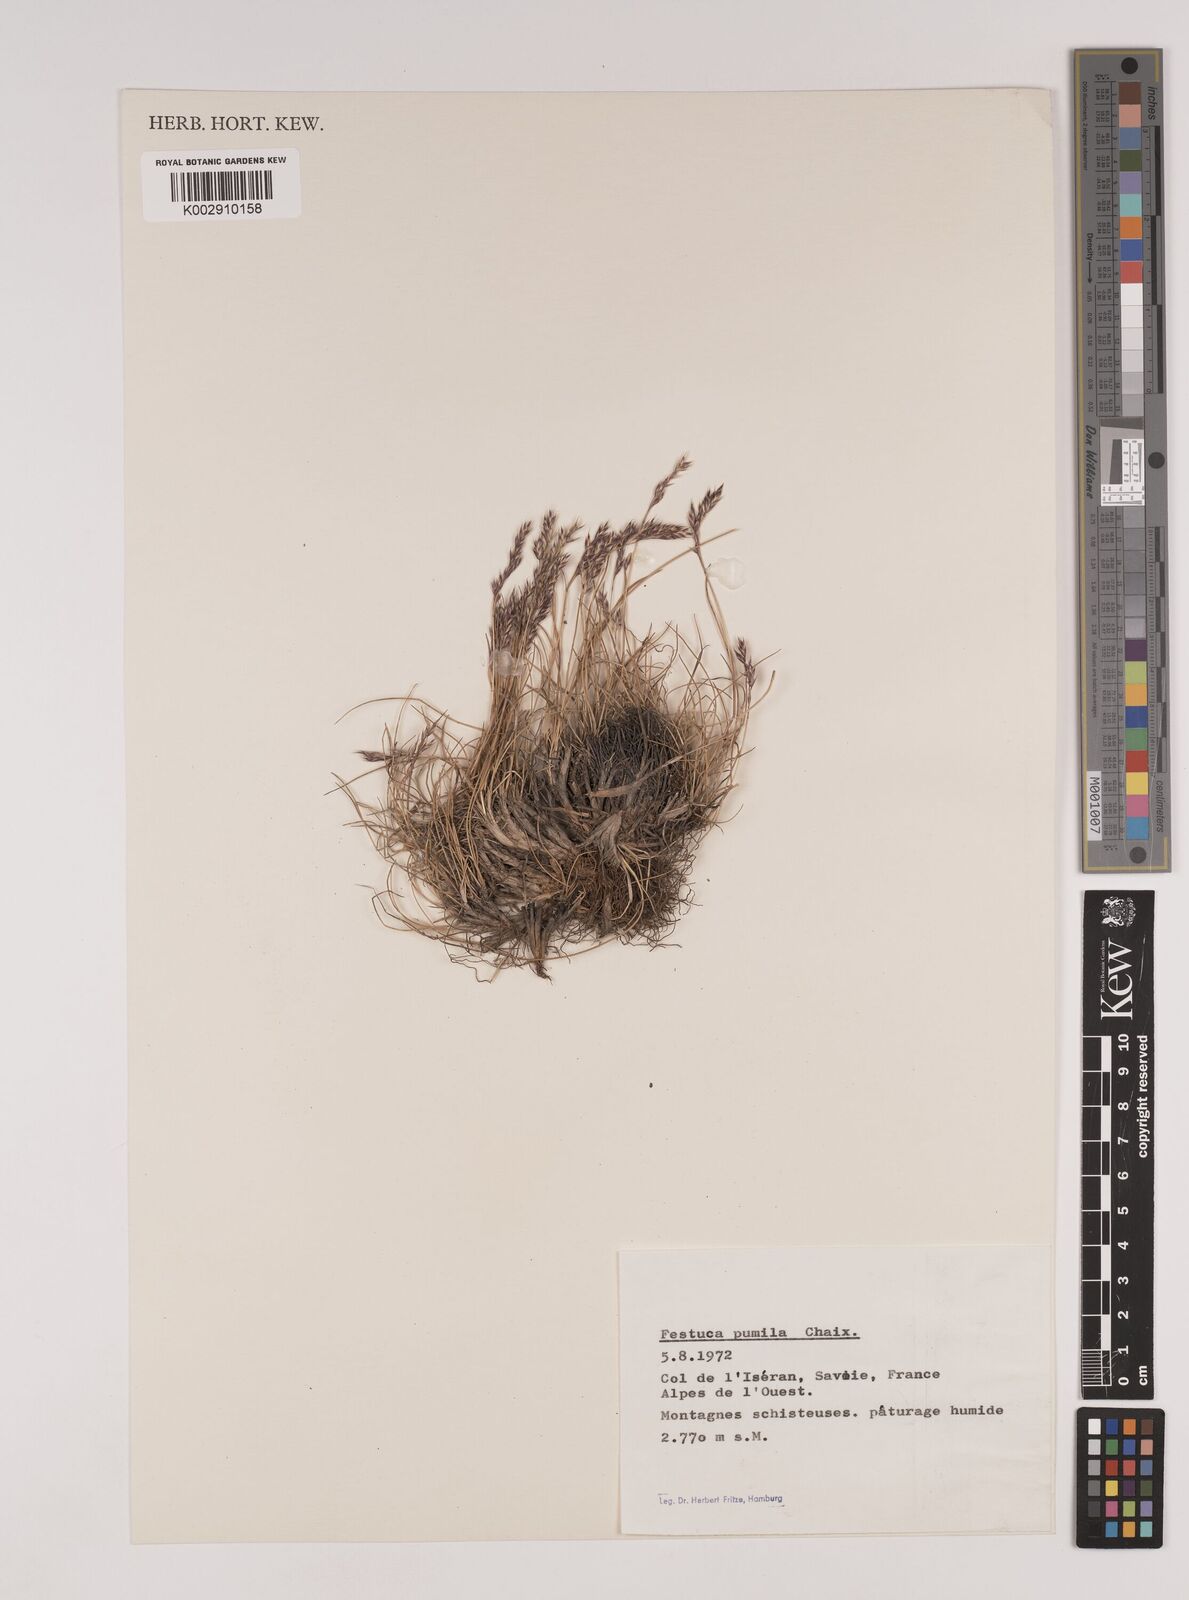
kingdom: Plantae
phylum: Tracheophyta
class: Liliopsida
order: Poales
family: Poaceae
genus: Festuca
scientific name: Festuca
